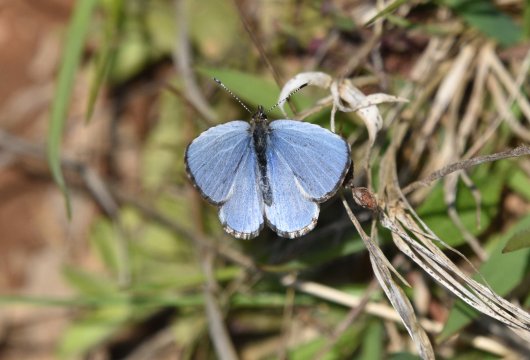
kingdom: Animalia
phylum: Arthropoda
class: Insecta
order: Lepidoptera
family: Lycaenidae
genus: Celastrina
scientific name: Celastrina lucia
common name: Northern Spring Azure
